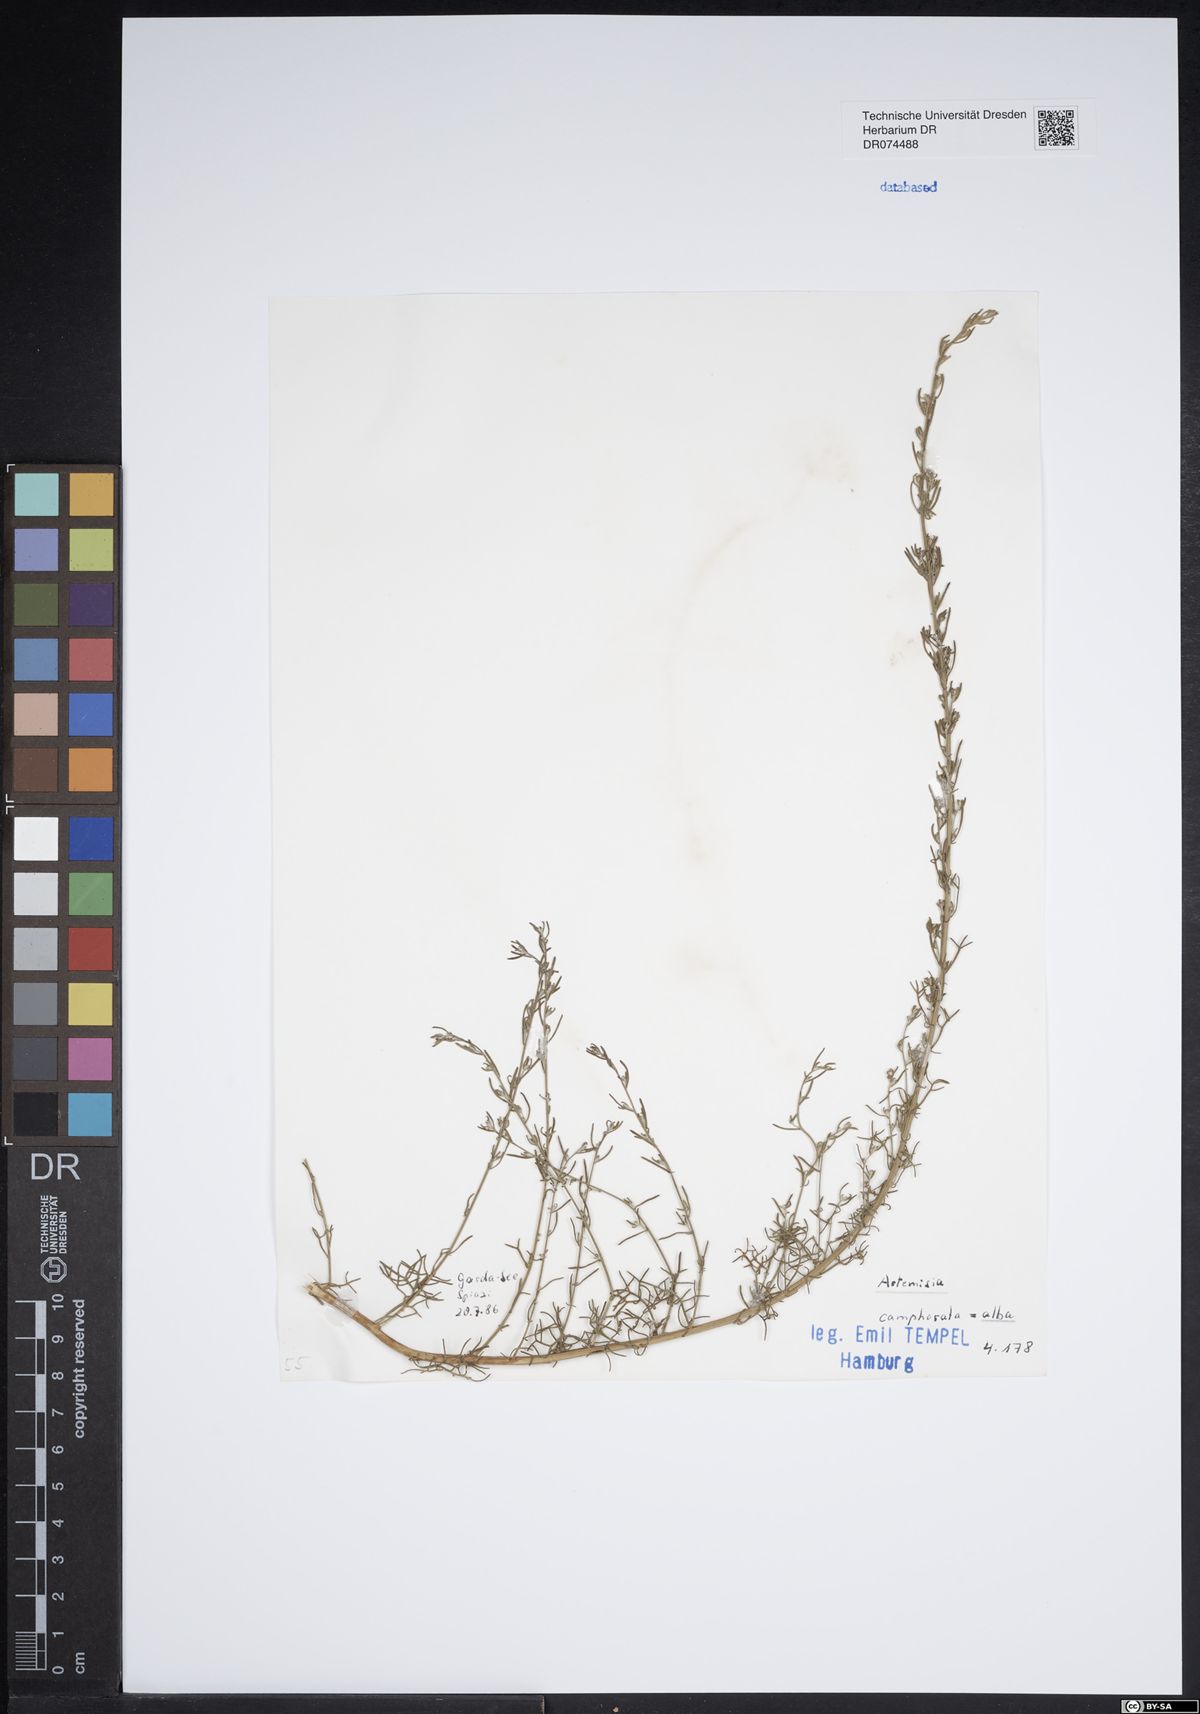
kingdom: Plantae
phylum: Tracheophyta
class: Magnoliopsida
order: Asterales
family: Asteraceae
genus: Artemisia
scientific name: Artemisia alba
